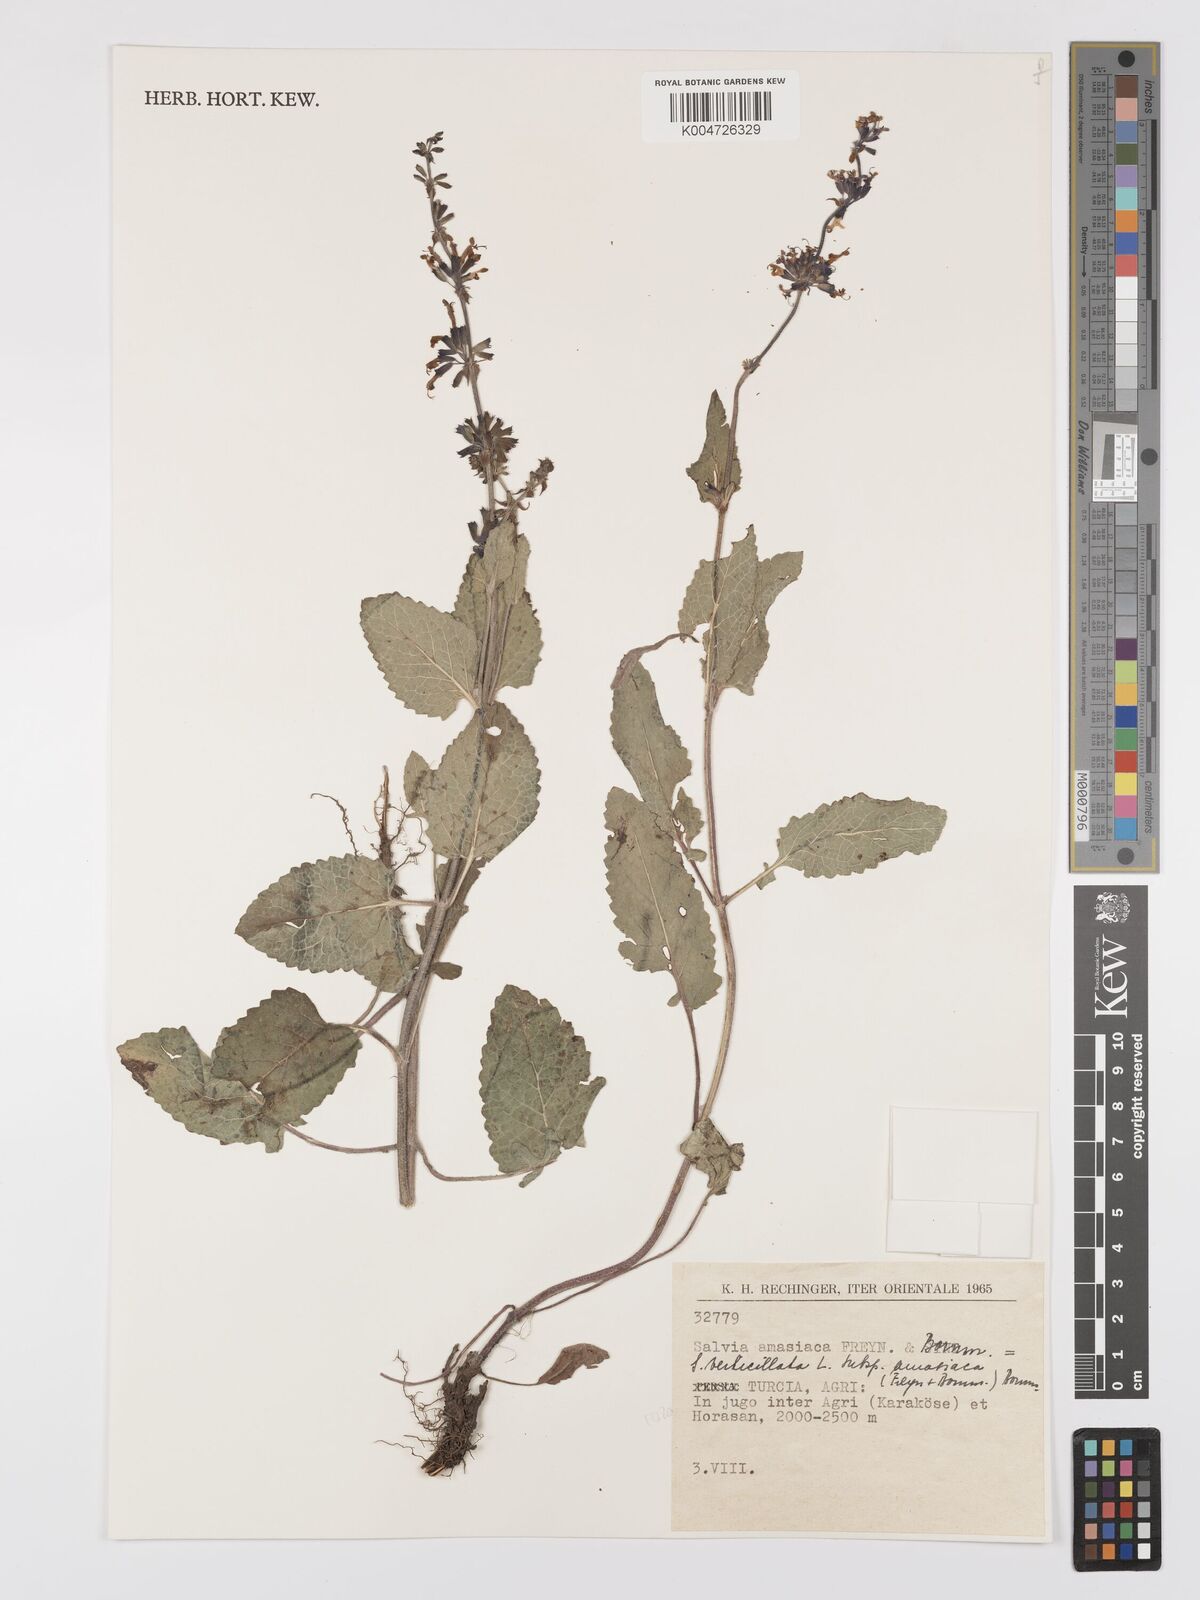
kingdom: Plantae
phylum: Tracheophyta
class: Magnoliopsida
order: Lamiales
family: Lamiaceae
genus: Salvia
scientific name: Salvia verticillata
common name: Whorled clary
